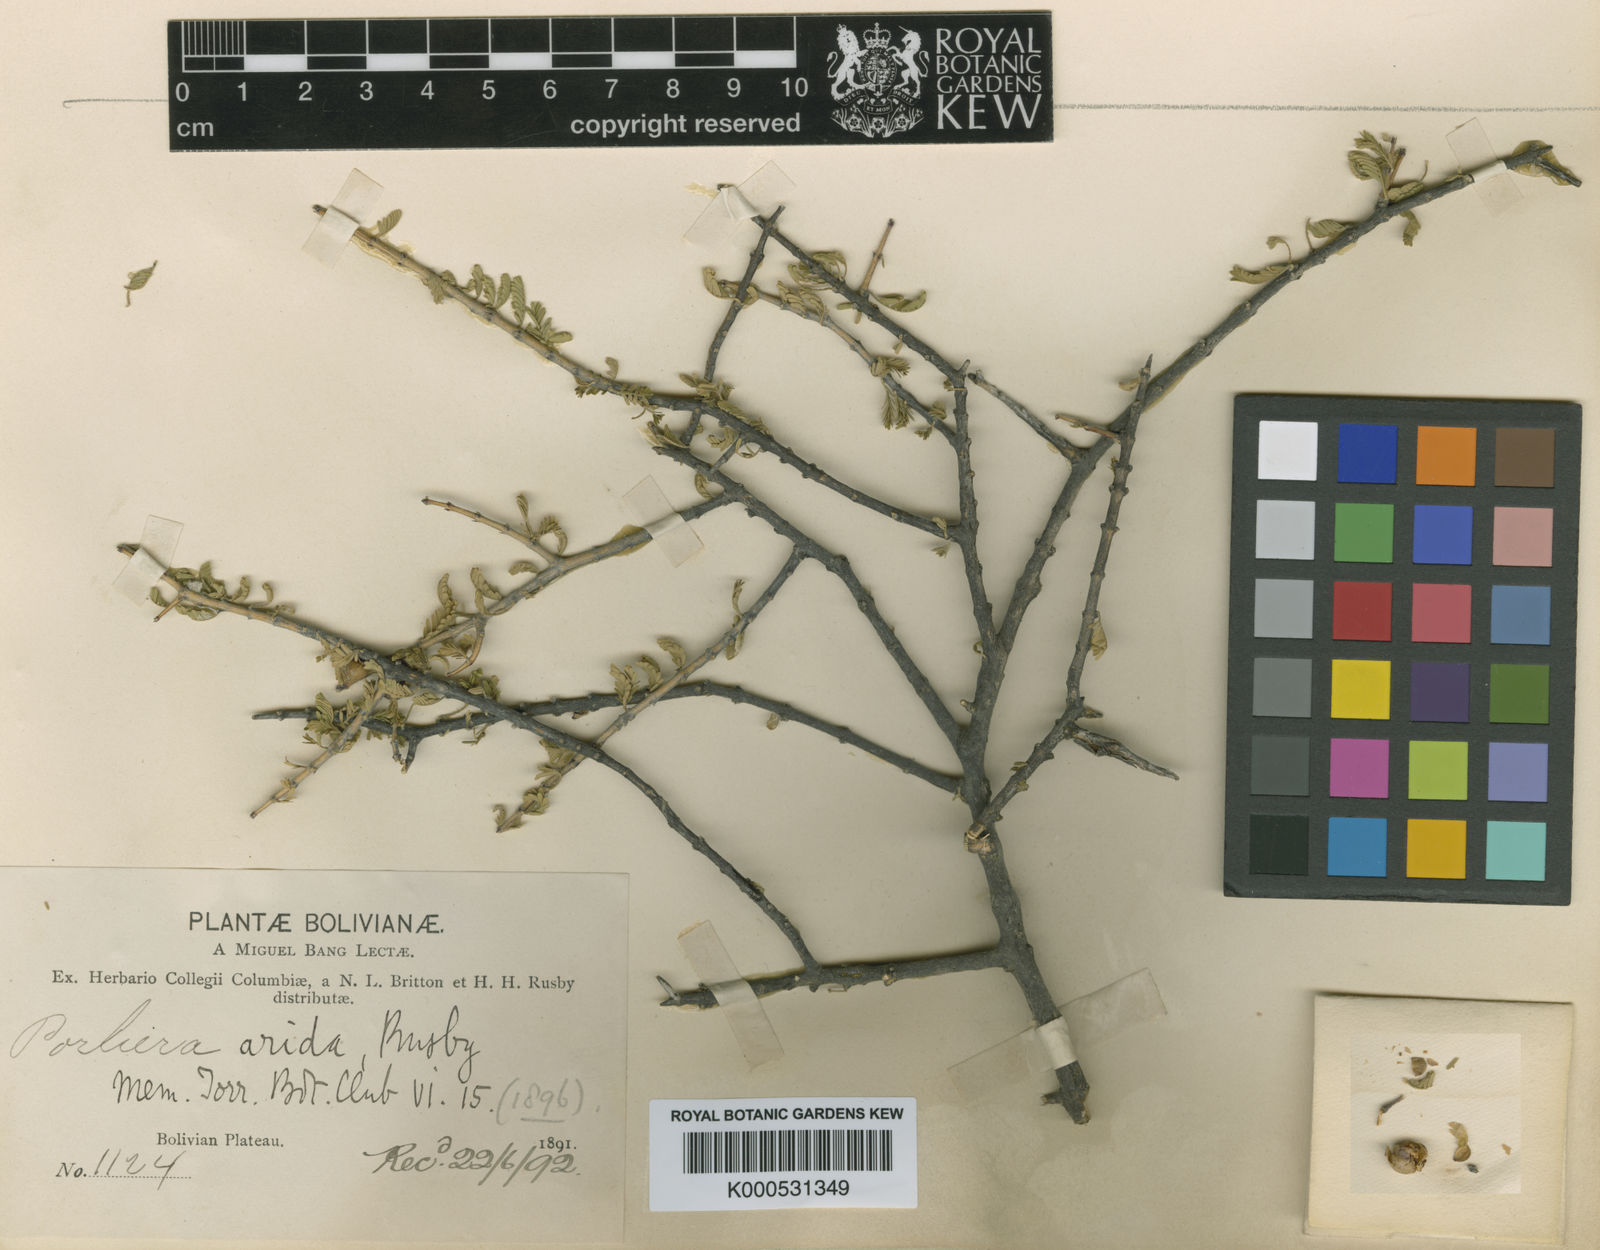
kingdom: Plantae
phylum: Tracheophyta
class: Magnoliopsida
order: Zygophyllales
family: Zygophyllaceae
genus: Porlieria
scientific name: Porlieria arida
